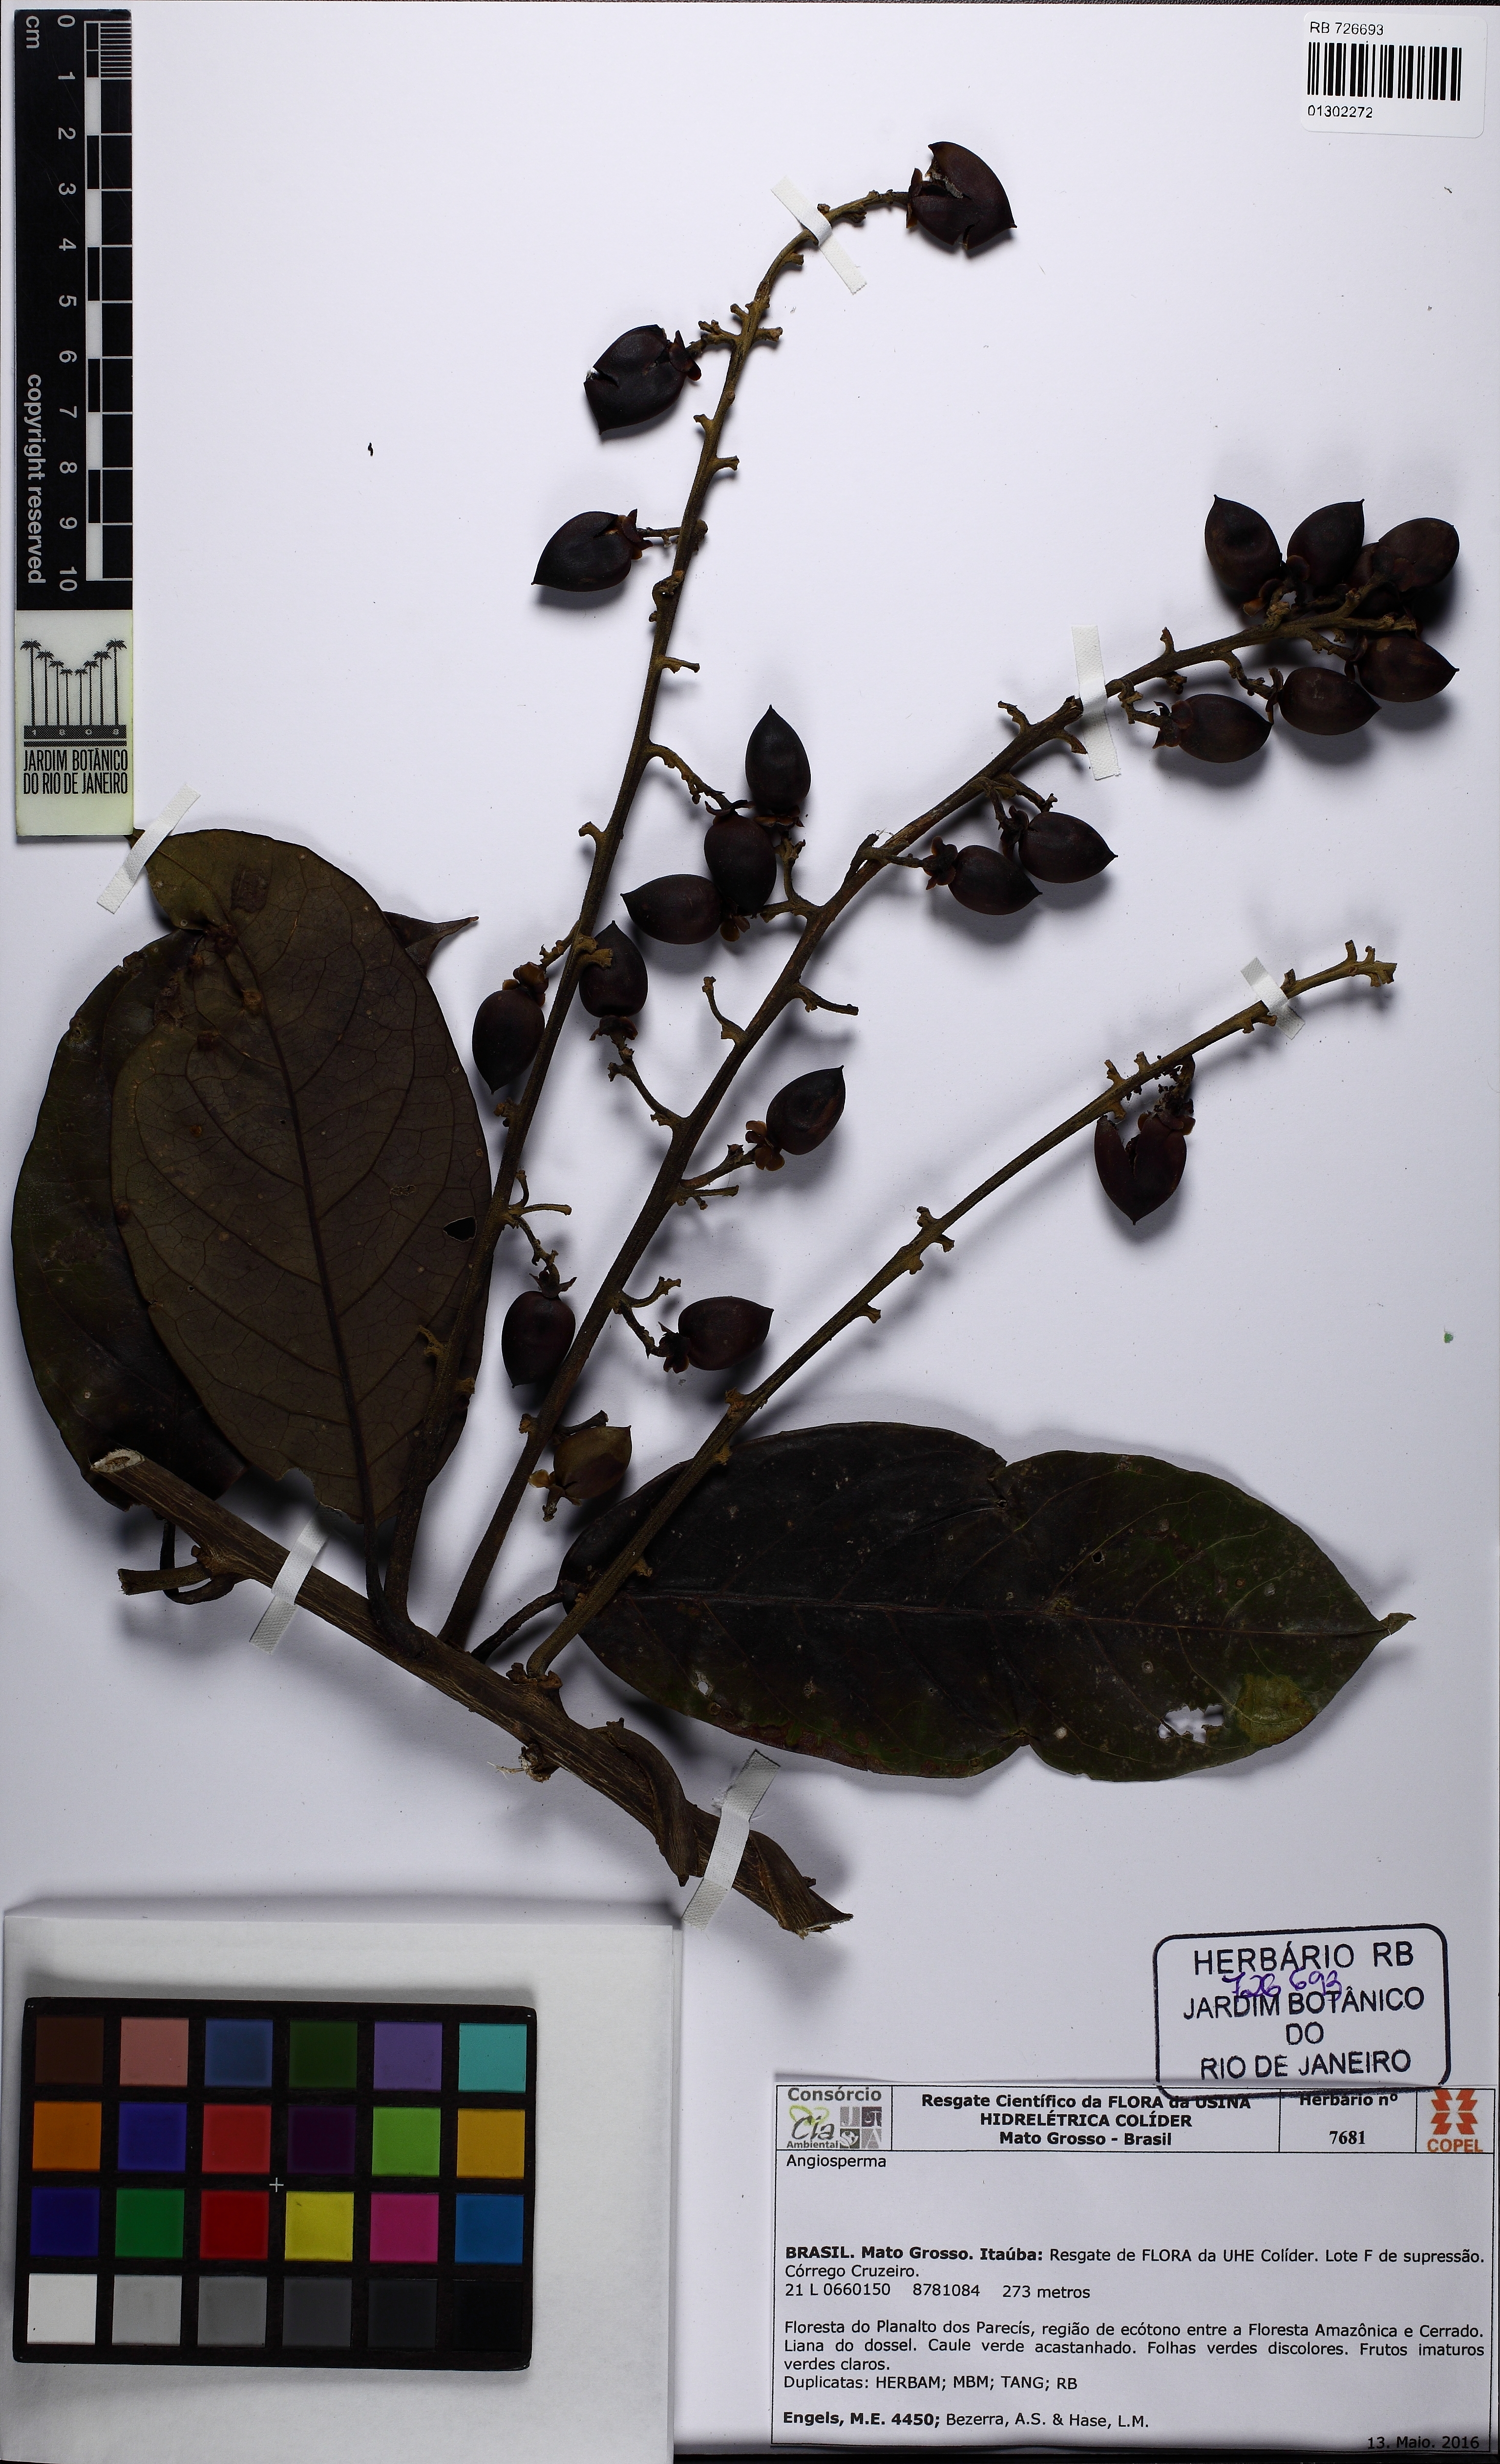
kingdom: Plantae
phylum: Tracheophyta
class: Magnoliopsida
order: Solanales
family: Convolvulaceae
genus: Maripa
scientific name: Maripa elongata
